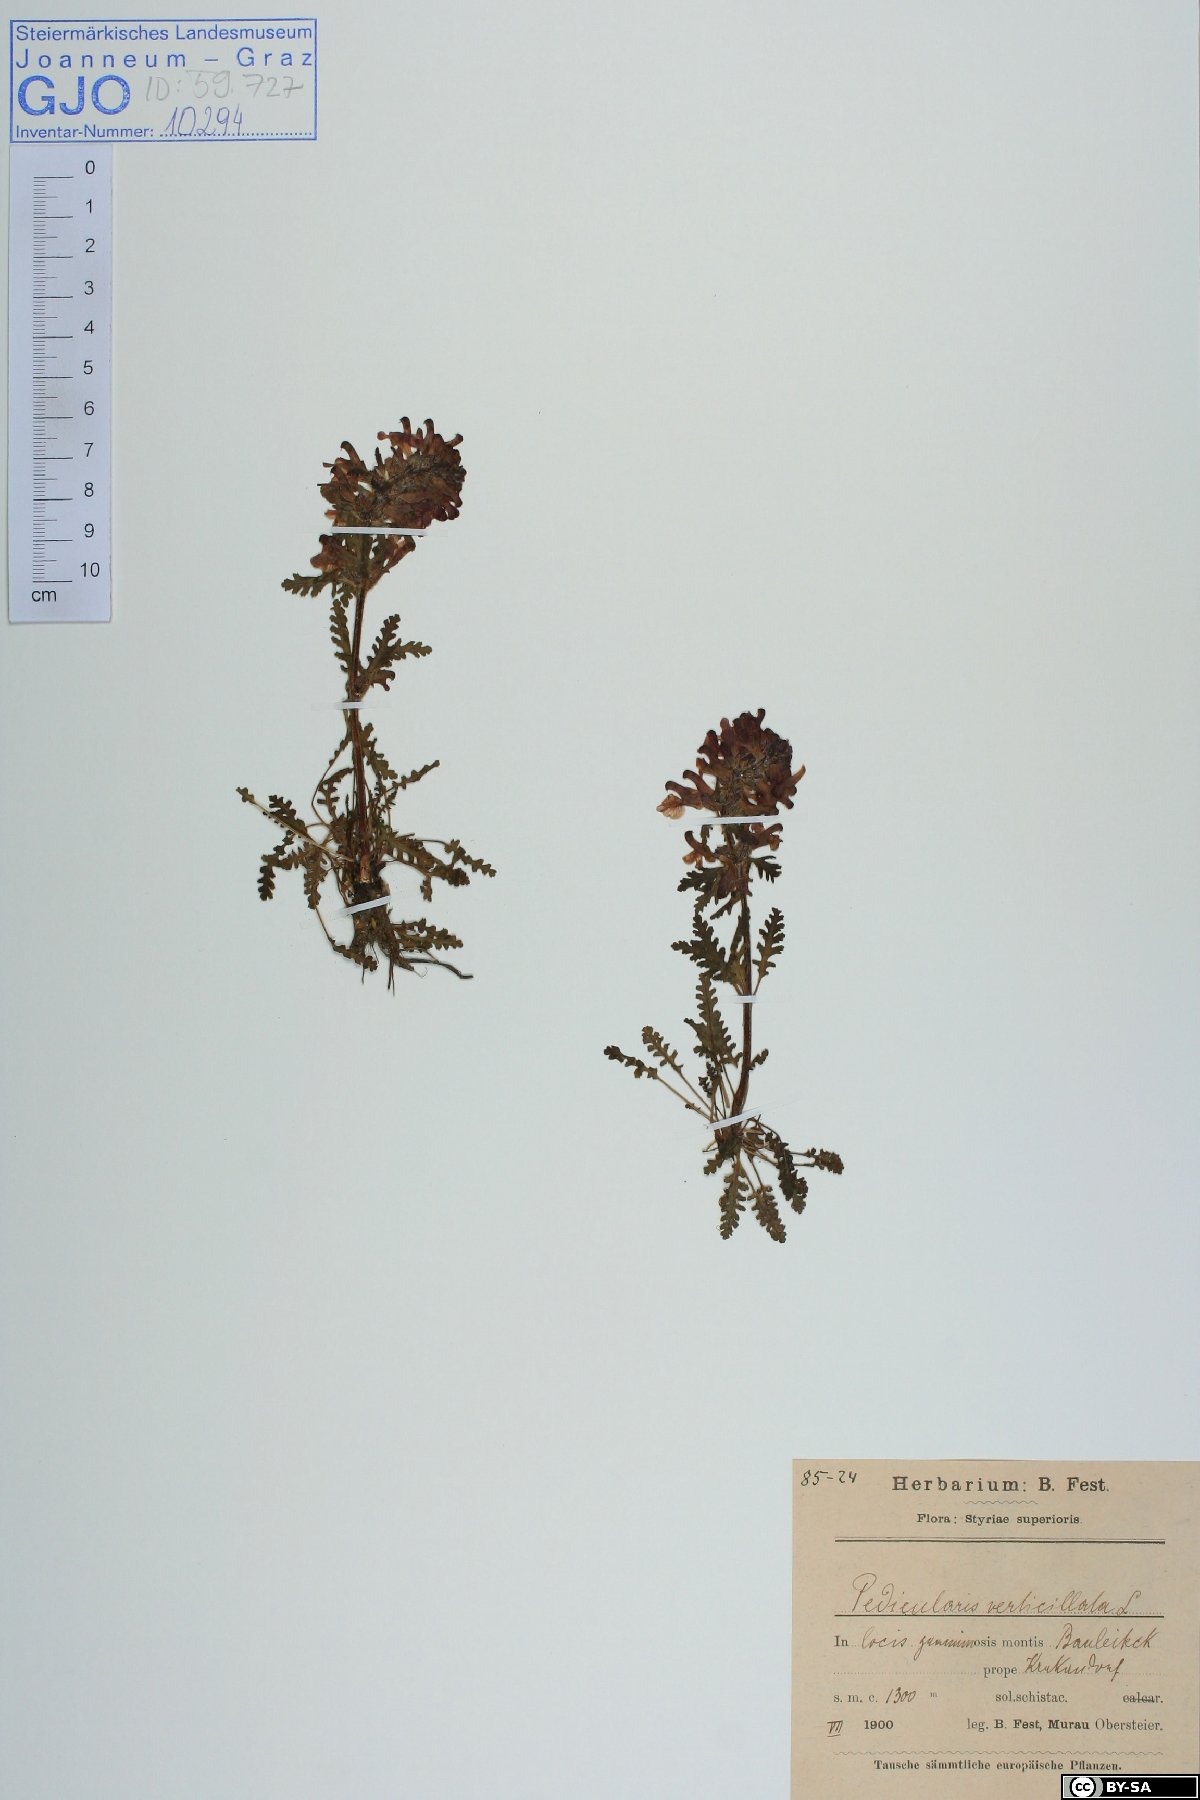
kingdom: Plantae
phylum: Tracheophyta
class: Magnoliopsida
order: Lamiales
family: Orobanchaceae
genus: Pedicularis
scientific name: Pedicularis verticillata
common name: Whorled lousewort
